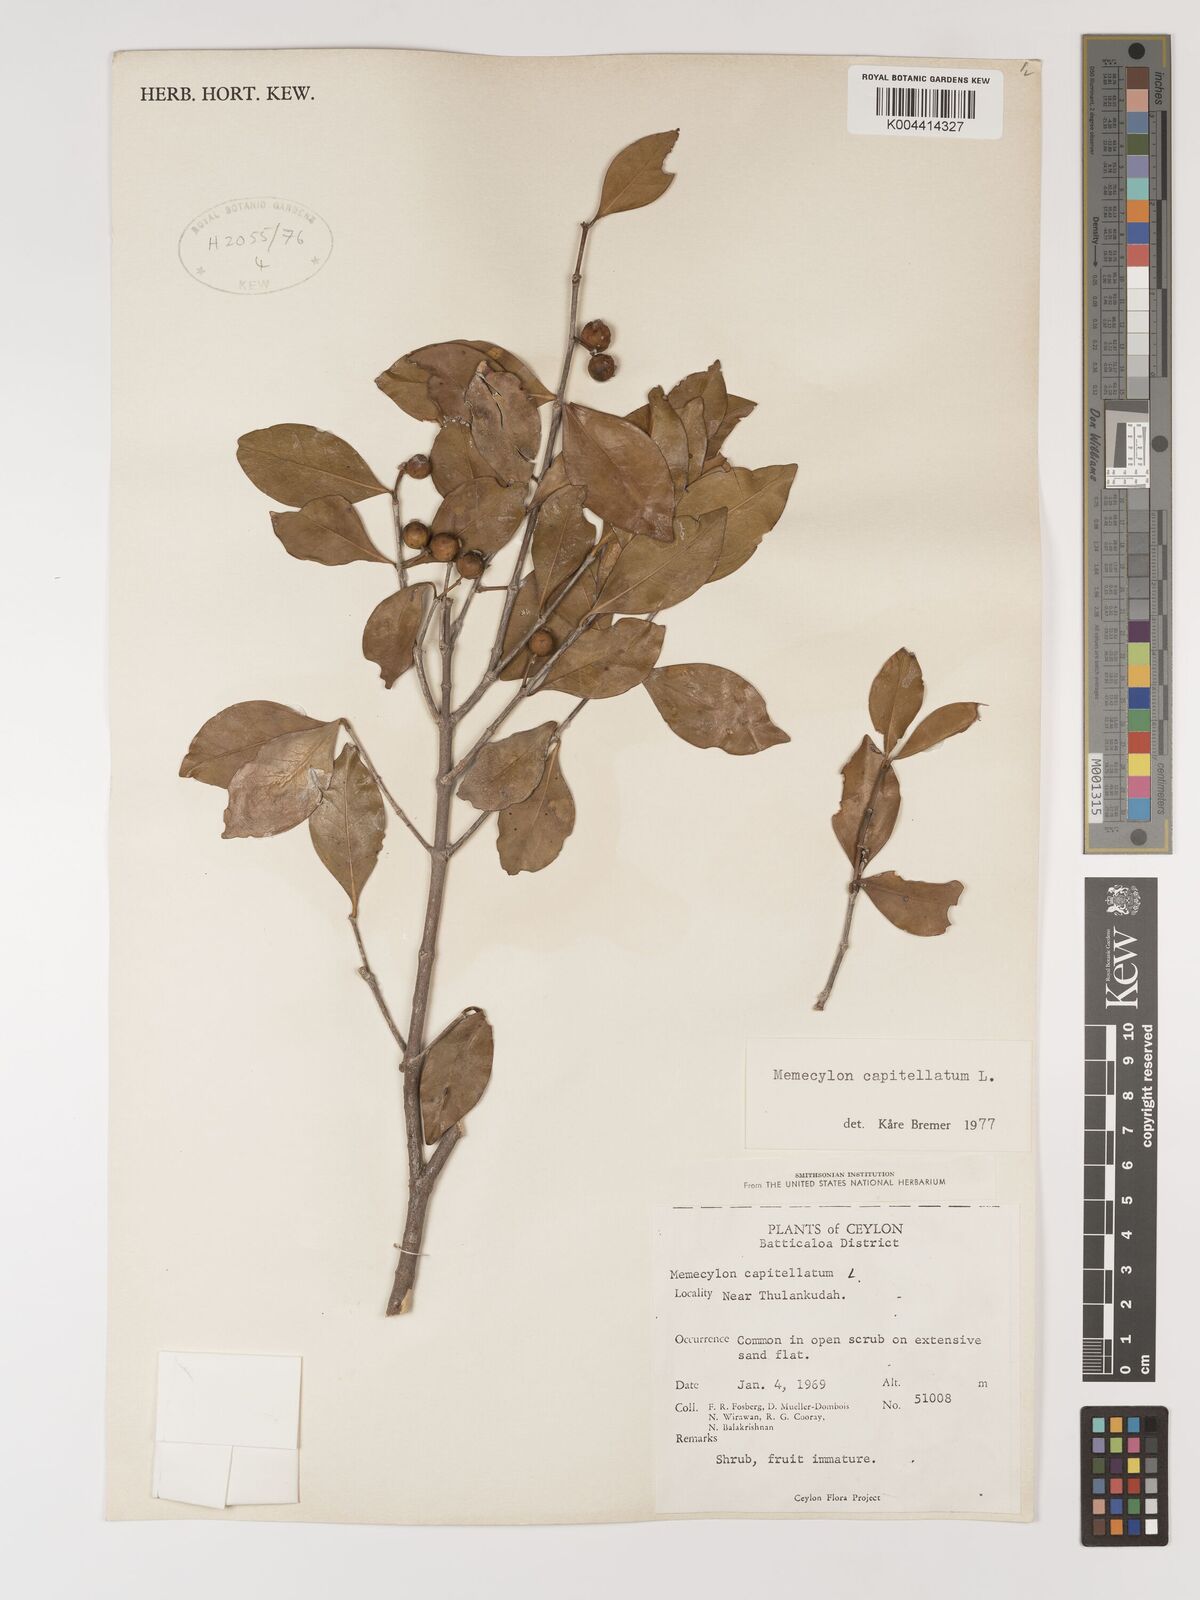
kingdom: Plantae
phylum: Tracheophyta
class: Magnoliopsida
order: Myrtales
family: Melastomataceae
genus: Memecylon
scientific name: Memecylon capitellatum
